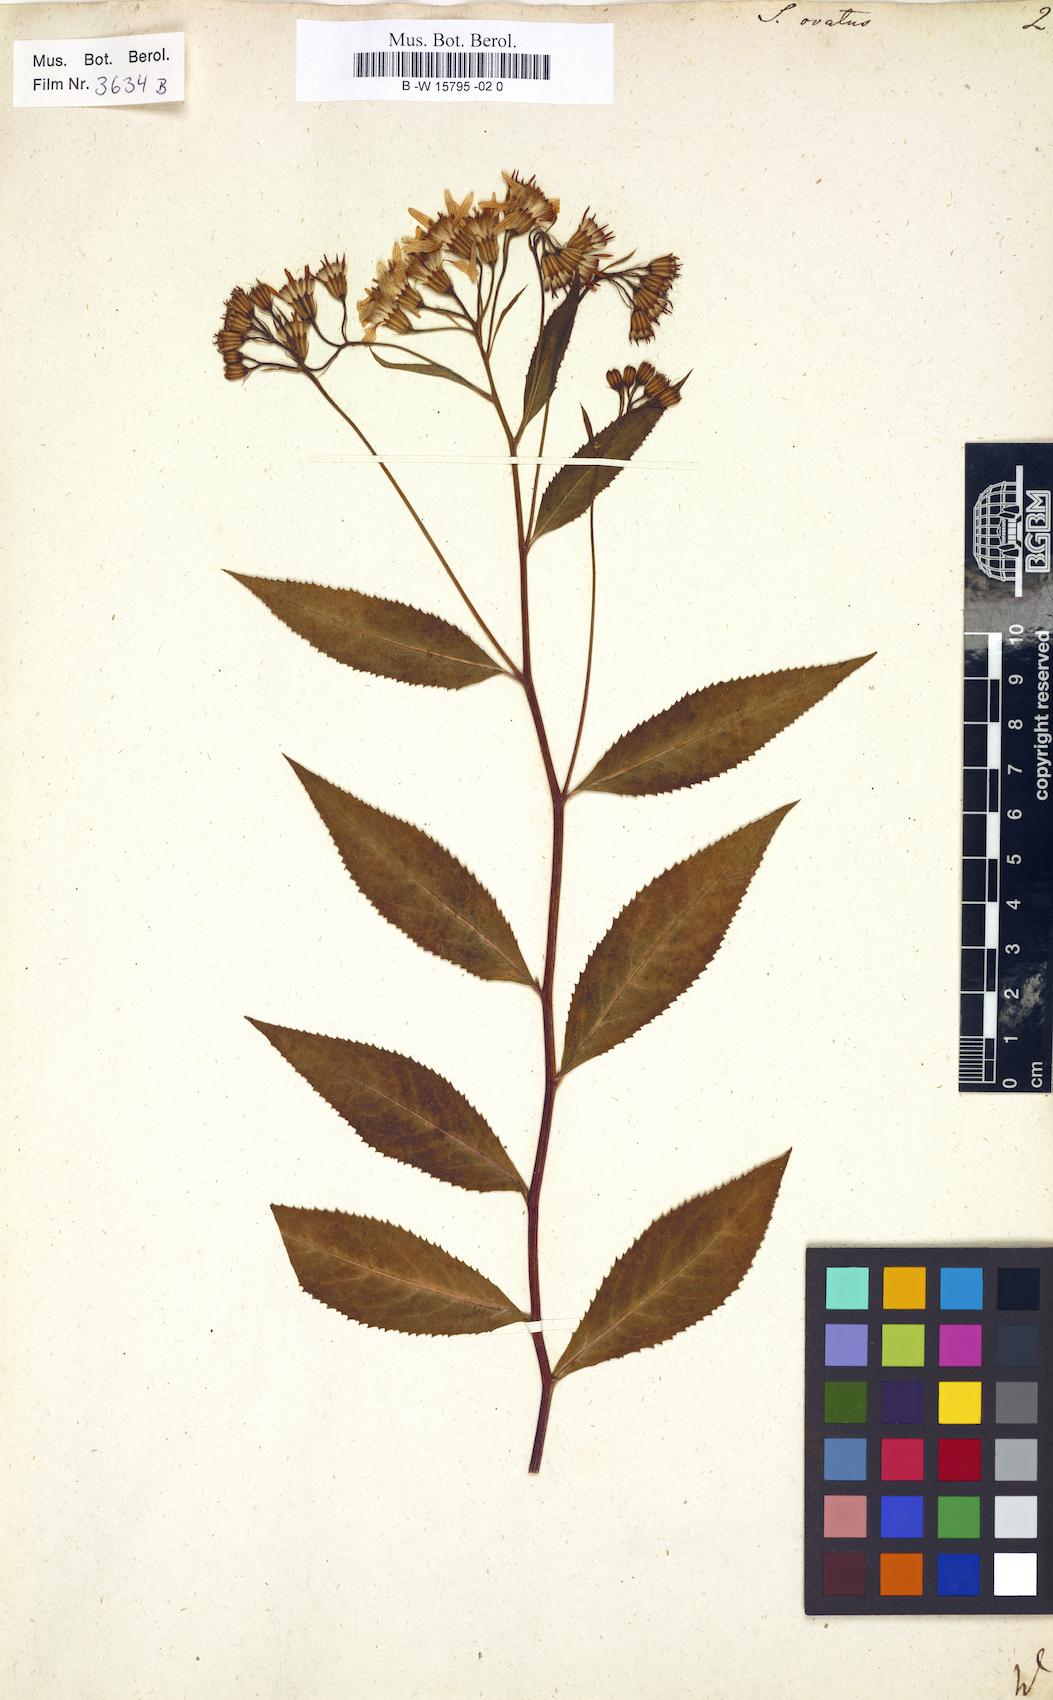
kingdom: Plantae
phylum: Tracheophyta
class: Magnoliopsida
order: Asterales
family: Asteraceae
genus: Senecio
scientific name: Senecio ovatus
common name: Wood ragwort
